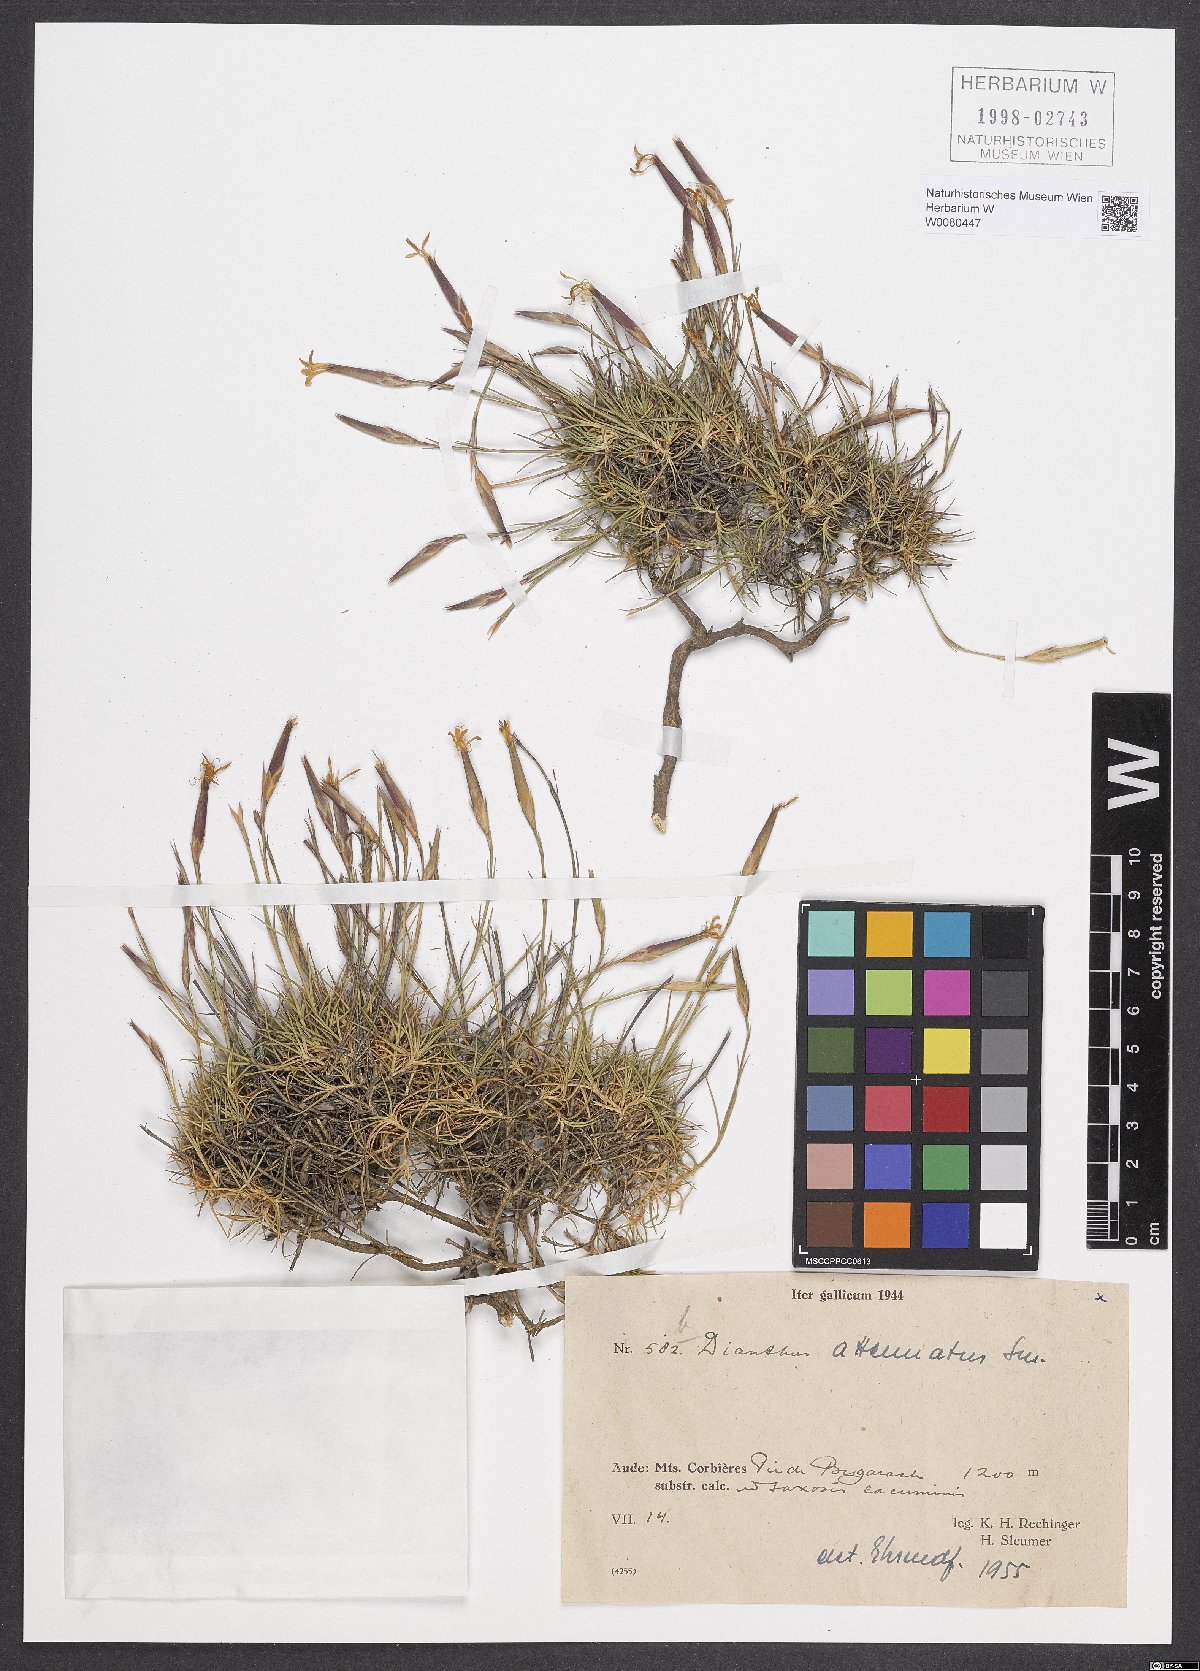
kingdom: Plantae
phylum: Tracheophyta
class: Magnoliopsida
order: Caryophyllales
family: Caryophyllaceae
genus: Dianthus
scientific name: Dianthus pyrenaicus
